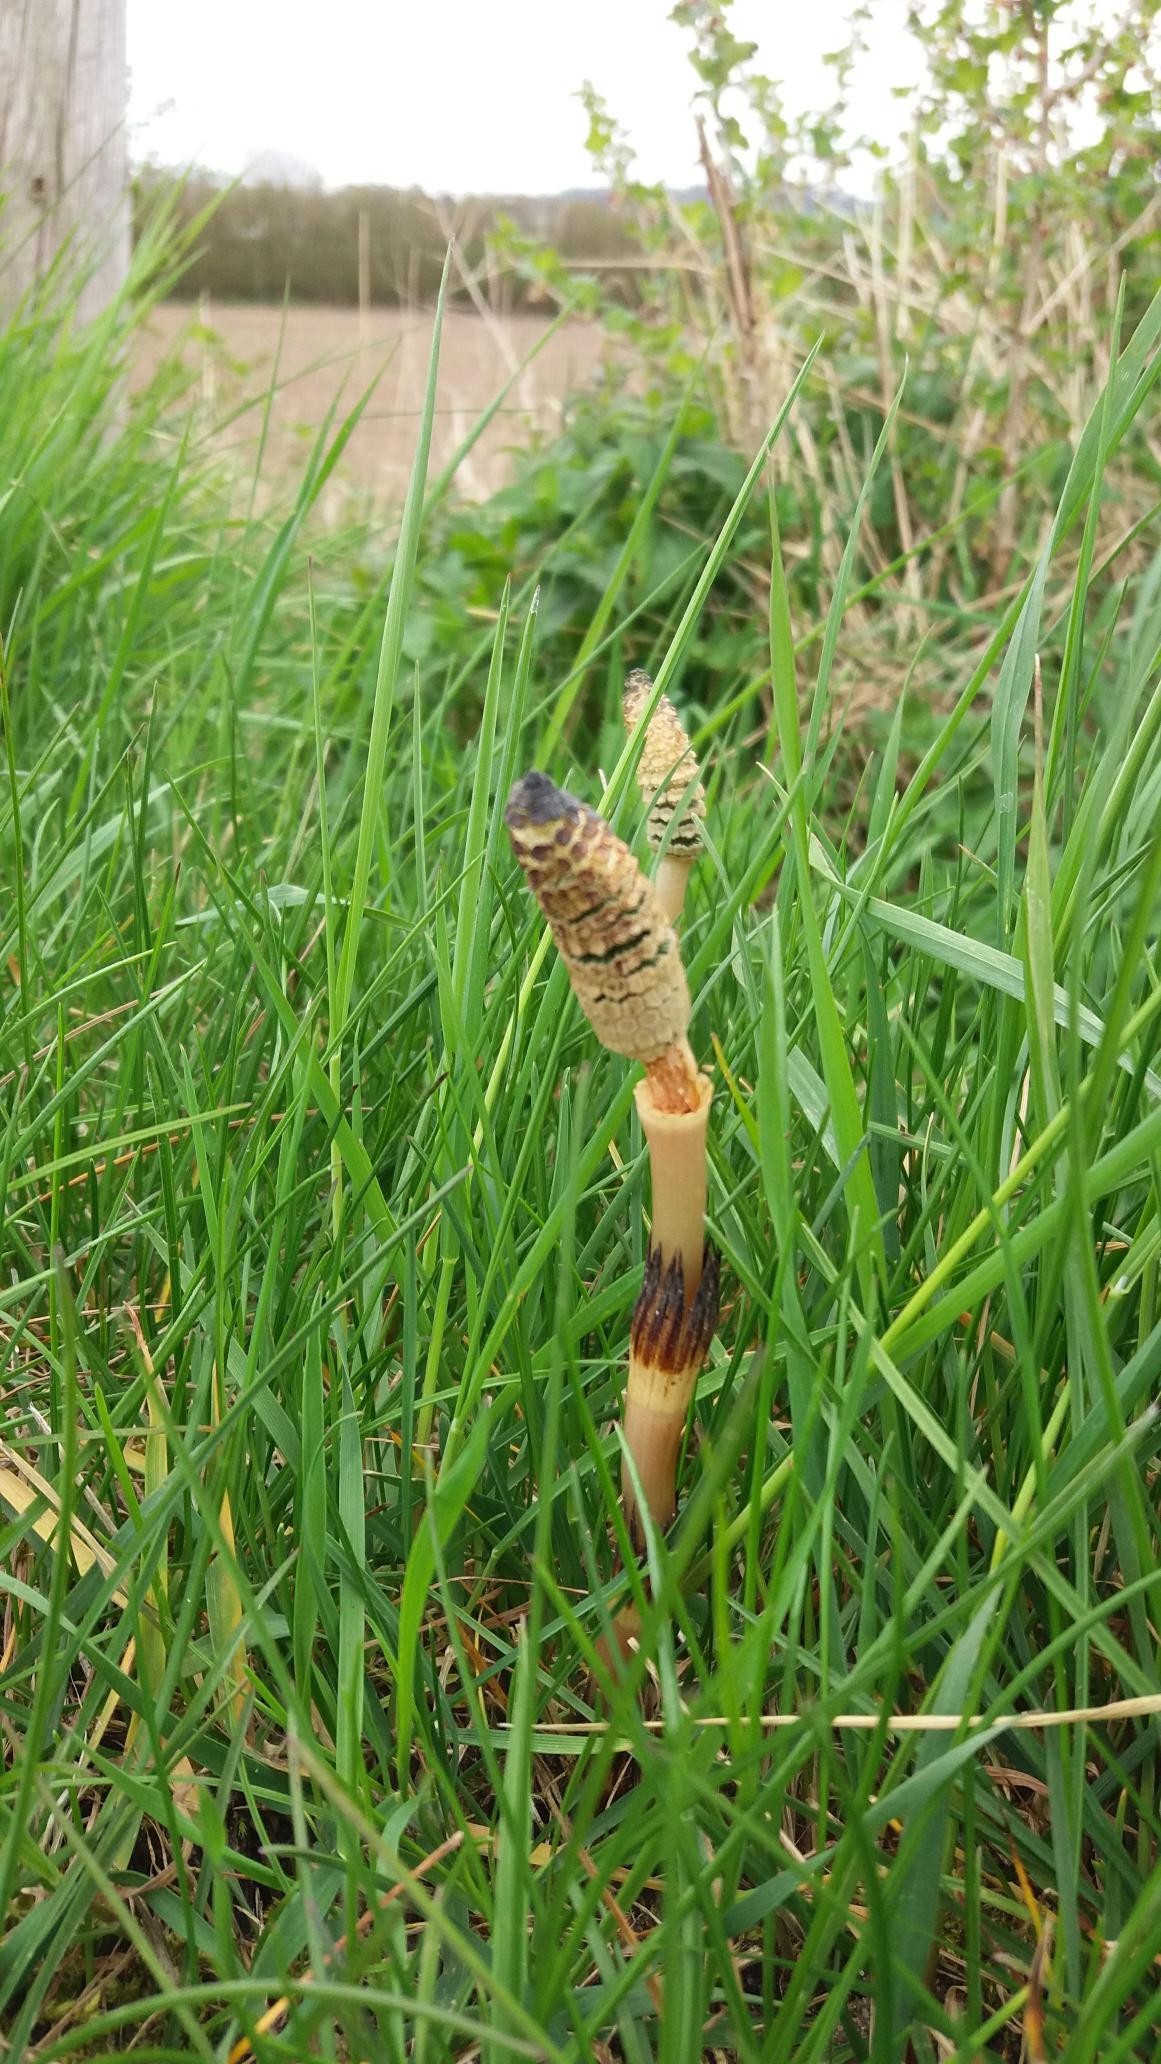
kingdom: Plantae
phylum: Tracheophyta
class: Polypodiopsida
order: Equisetales
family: Equisetaceae
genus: Equisetum
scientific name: Equisetum arvense
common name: Ager-padderok
